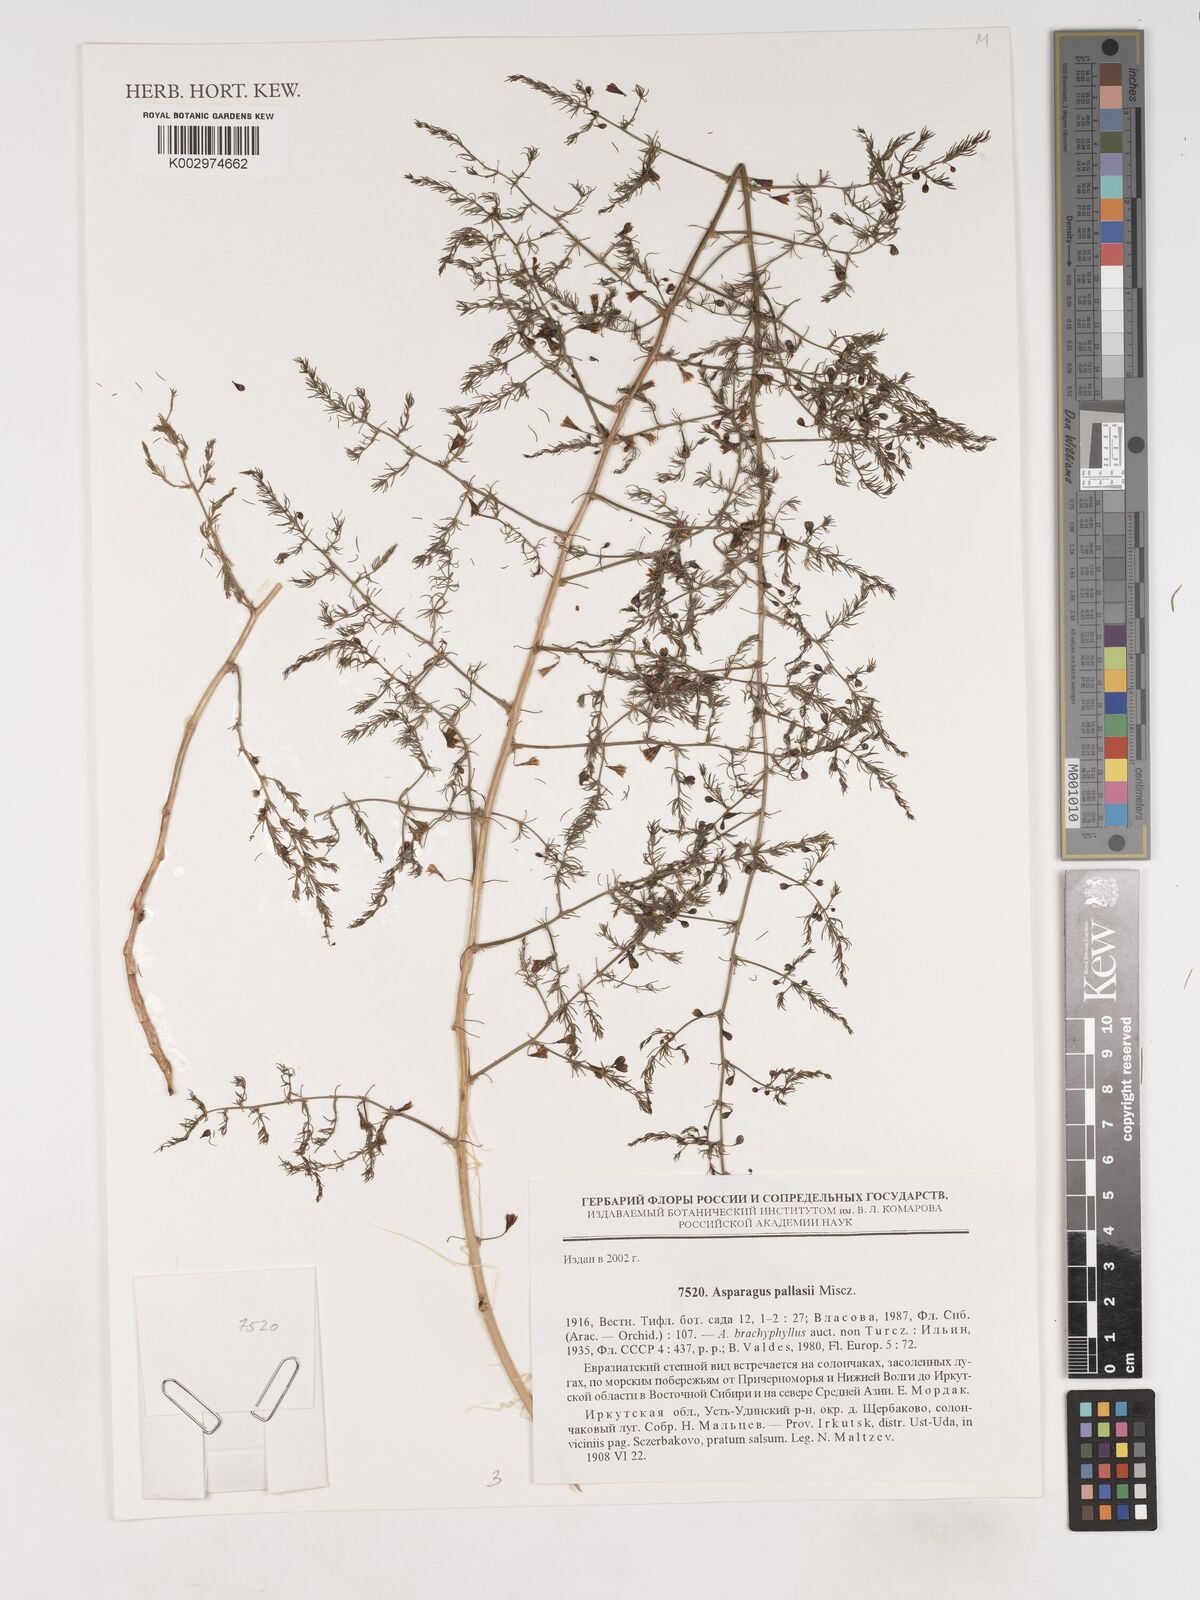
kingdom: Plantae
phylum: Tracheophyta
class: Liliopsida
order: Asparagales
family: Asparagaceae
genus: Asparagus
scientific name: Asparagus officinalis
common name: Garden asparagus
